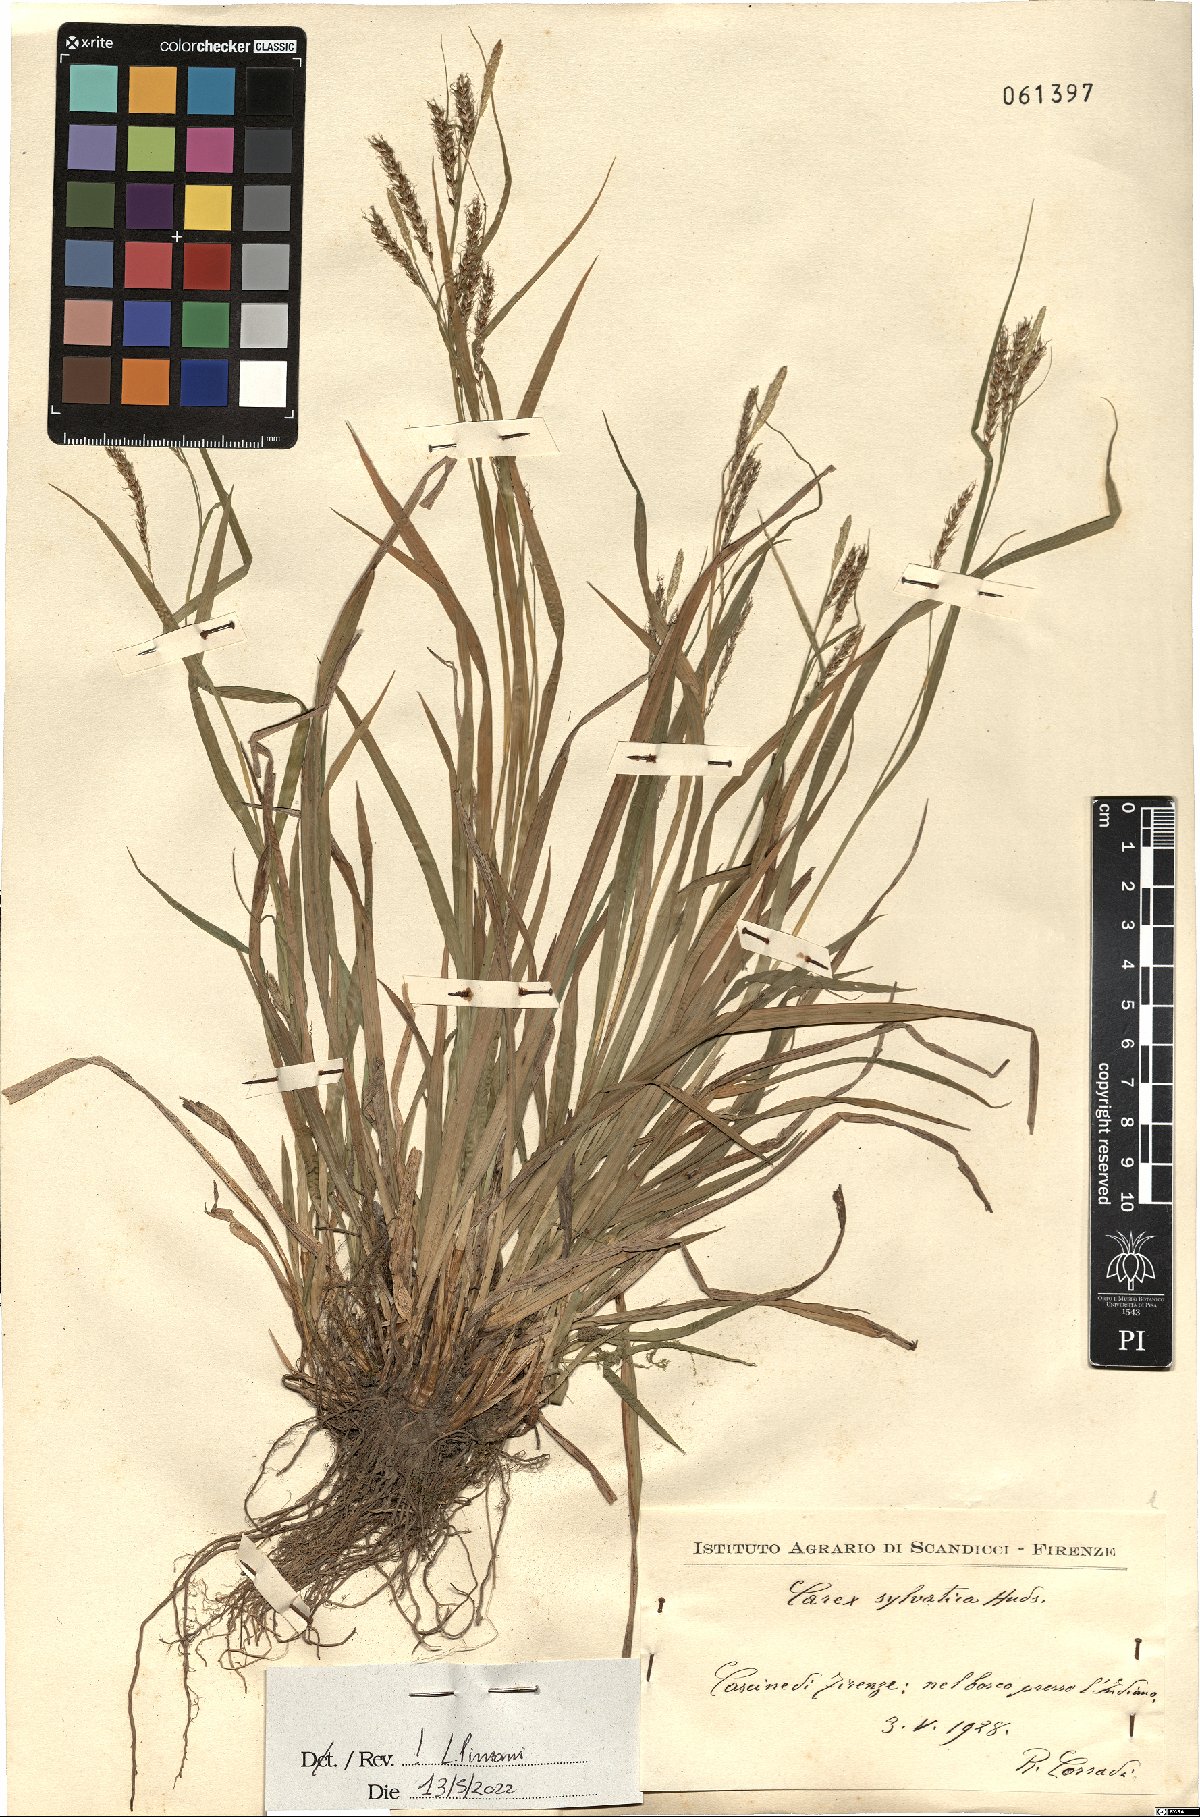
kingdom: Plantae
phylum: Tracheophyta
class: Liliopsida
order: Poales
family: Cyperaceae
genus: Carex
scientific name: Carex sylvatica
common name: Wood-sedge
